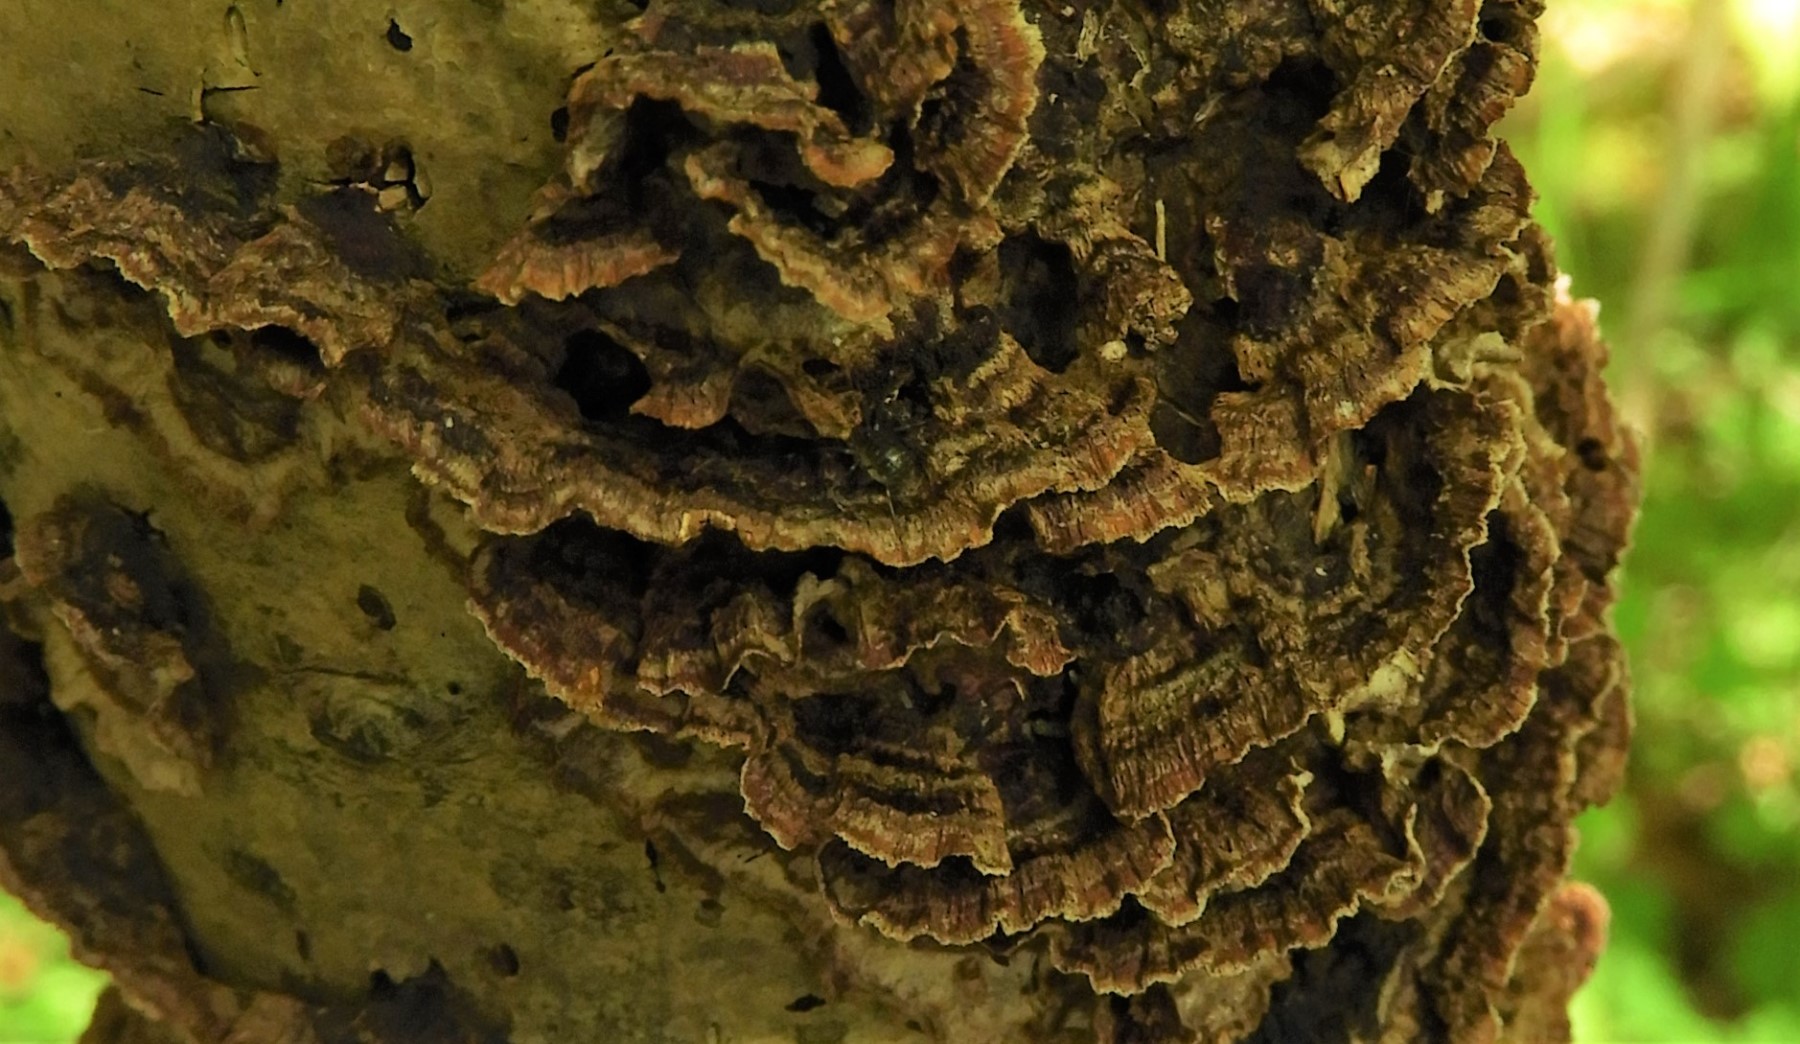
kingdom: Fungi
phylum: Basidiomycota
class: Agaricomycetes
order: Hymenochaetales
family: Hymenochaetaceae
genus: Hydnoporia
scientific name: Hydnoporia tabacina
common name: tobaksbrun ruslædersvamp
